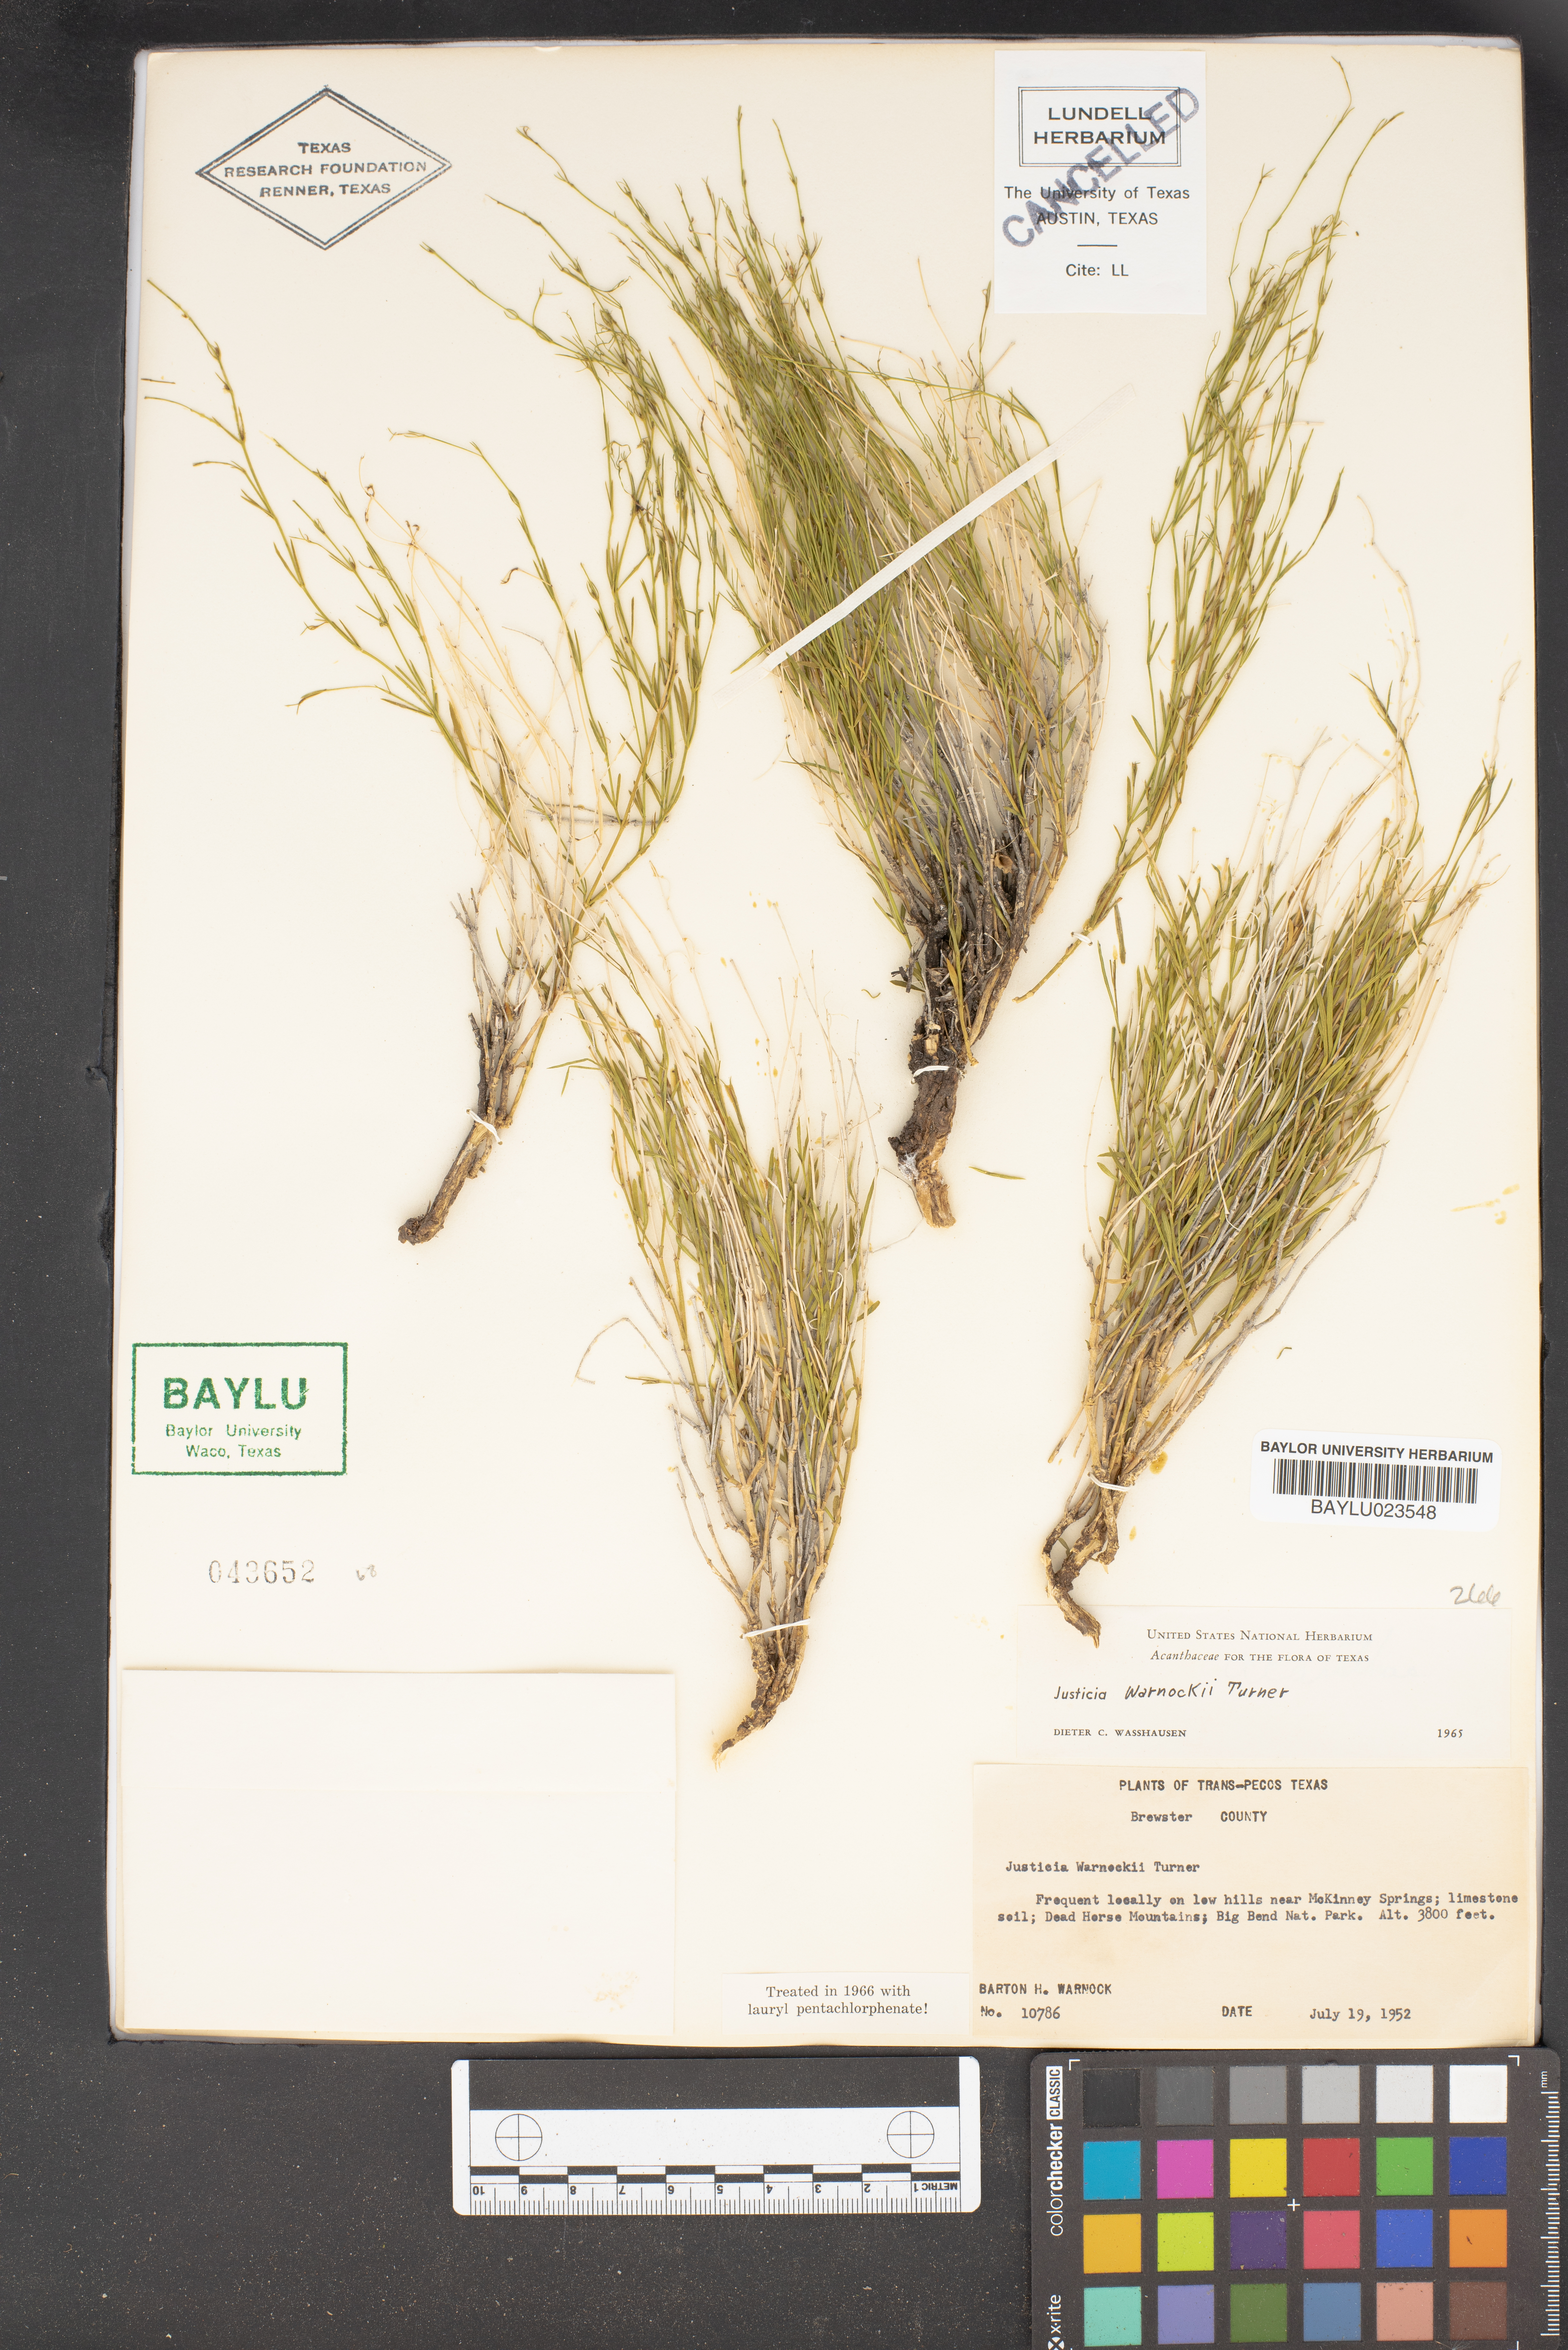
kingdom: Plantae
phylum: Tracheophyta
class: Magnoliopsida
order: Lamiales
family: Acanthaceae
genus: Justicia
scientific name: Justicia warnockii
